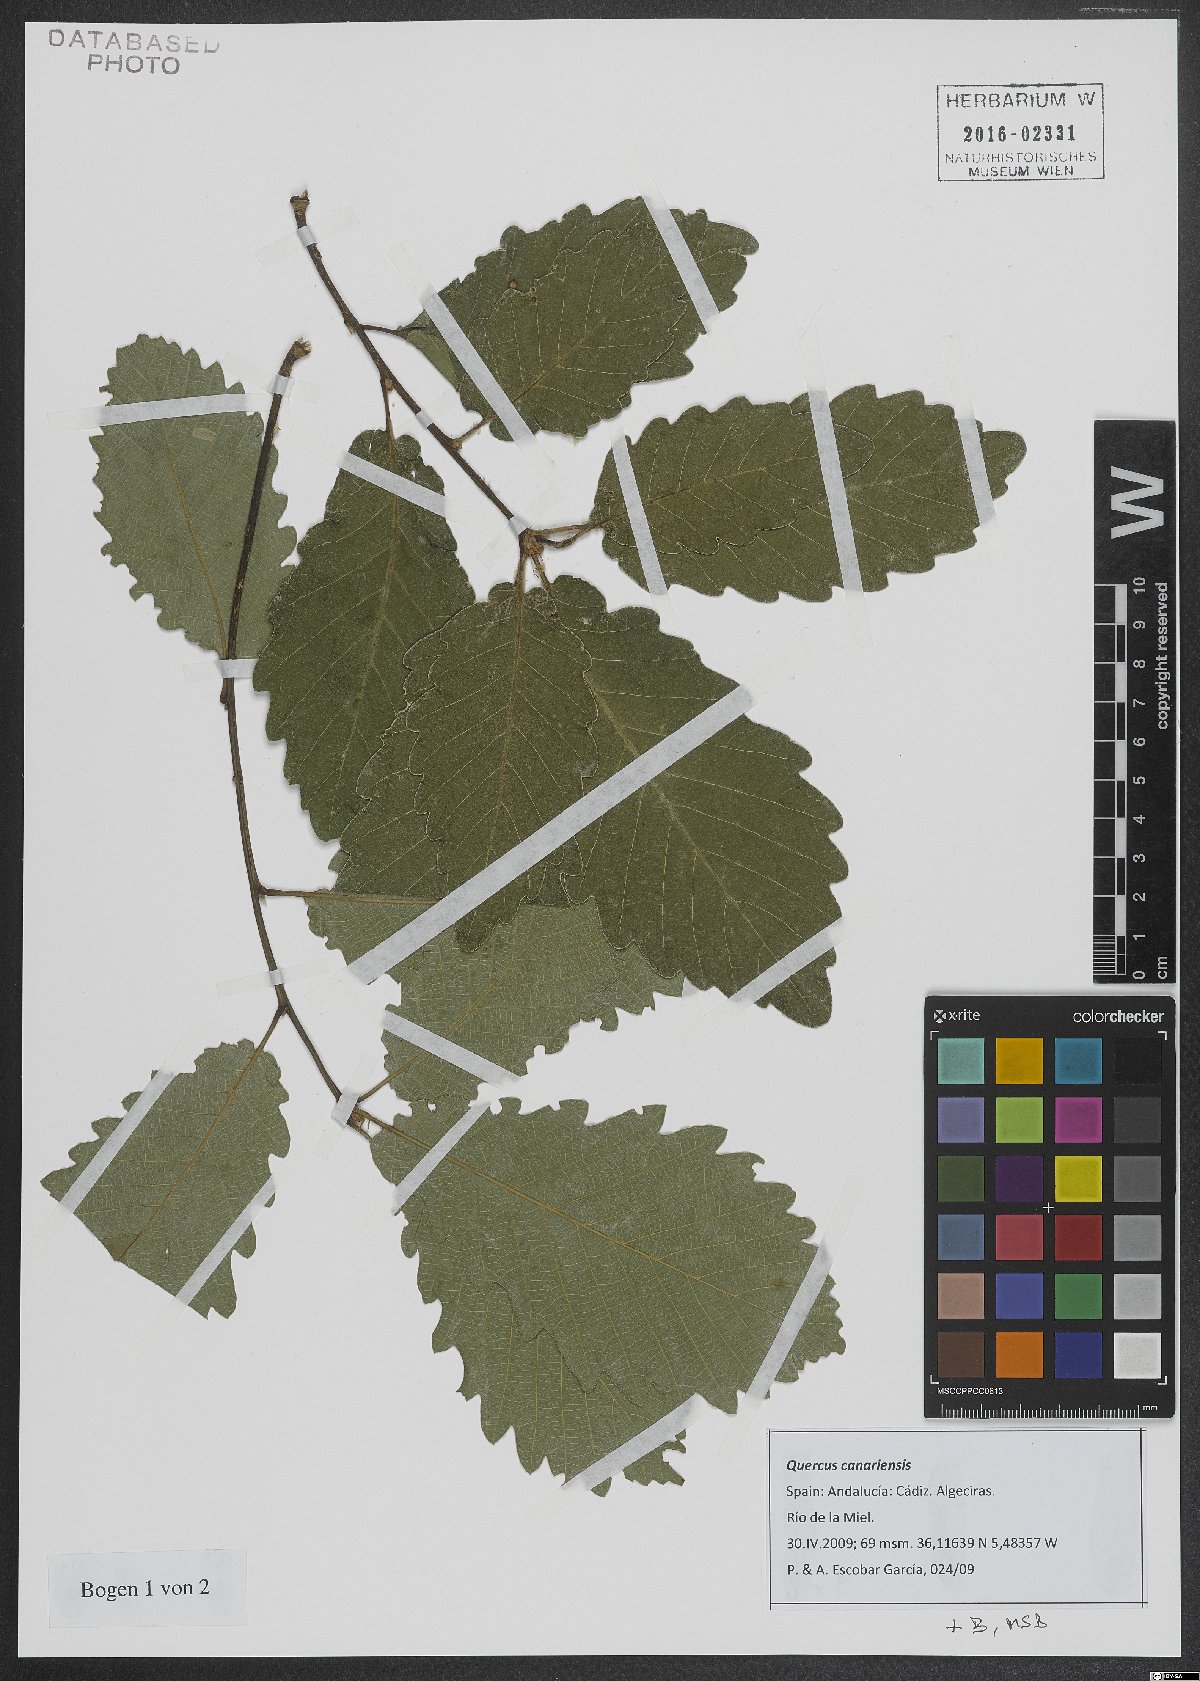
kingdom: Plantae
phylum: Tracheophyta
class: Magnoliopsida
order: Fagales
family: Fagaceae
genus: Quercus
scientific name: Quercus canariensis
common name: Algerian oak
